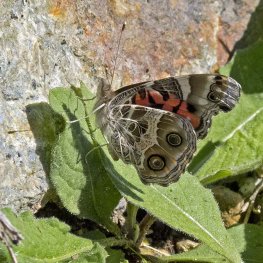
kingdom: Animalia
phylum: Arthropoda
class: Insecta
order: Lepidoptera
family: Nymphalidae
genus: Vanessa
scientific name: Vanessa virginiensis
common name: American Lady
